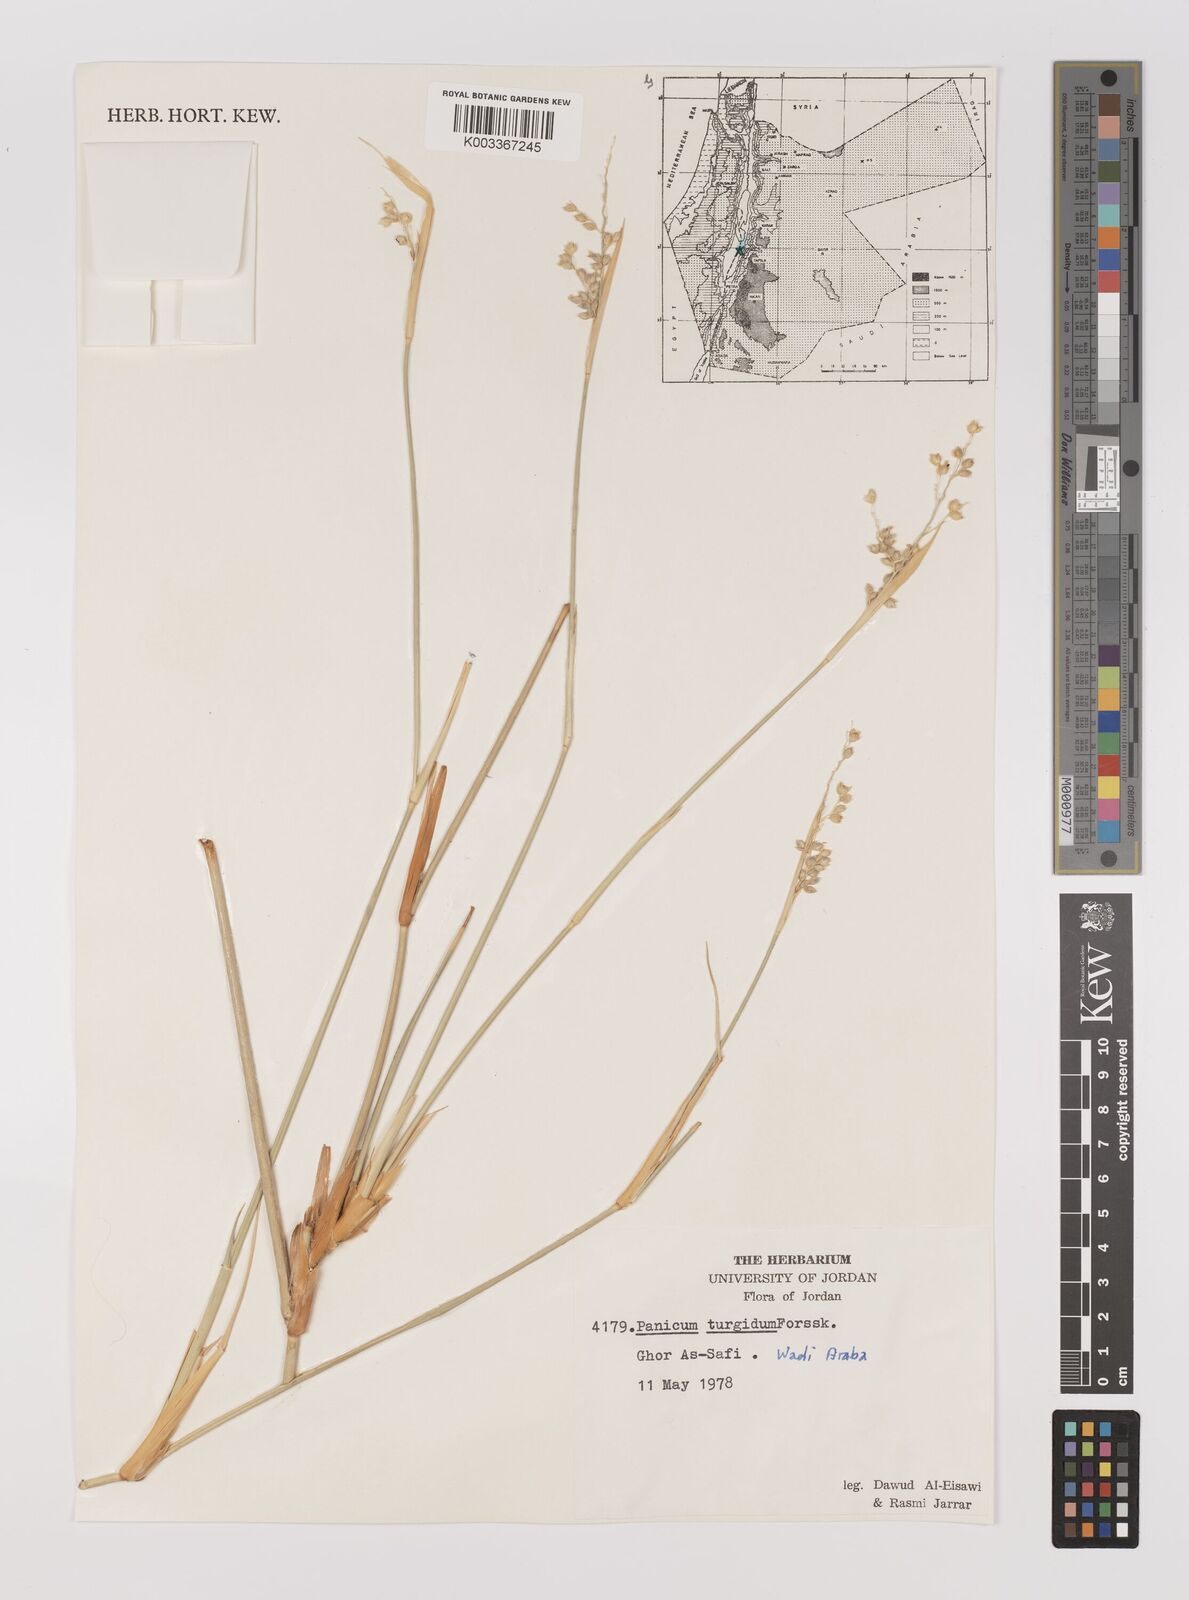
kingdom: Plantae
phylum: Tracheophyta
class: Liliopsida
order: Poales
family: Poaceae
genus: Panicum
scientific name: Panicum turgidum
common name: Desert grass
